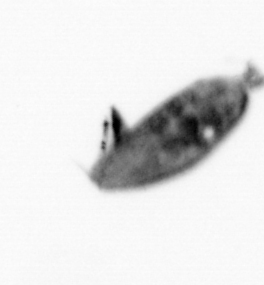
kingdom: Animalia
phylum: Arthropoda
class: Maxillopoda
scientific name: Maxillopoda
